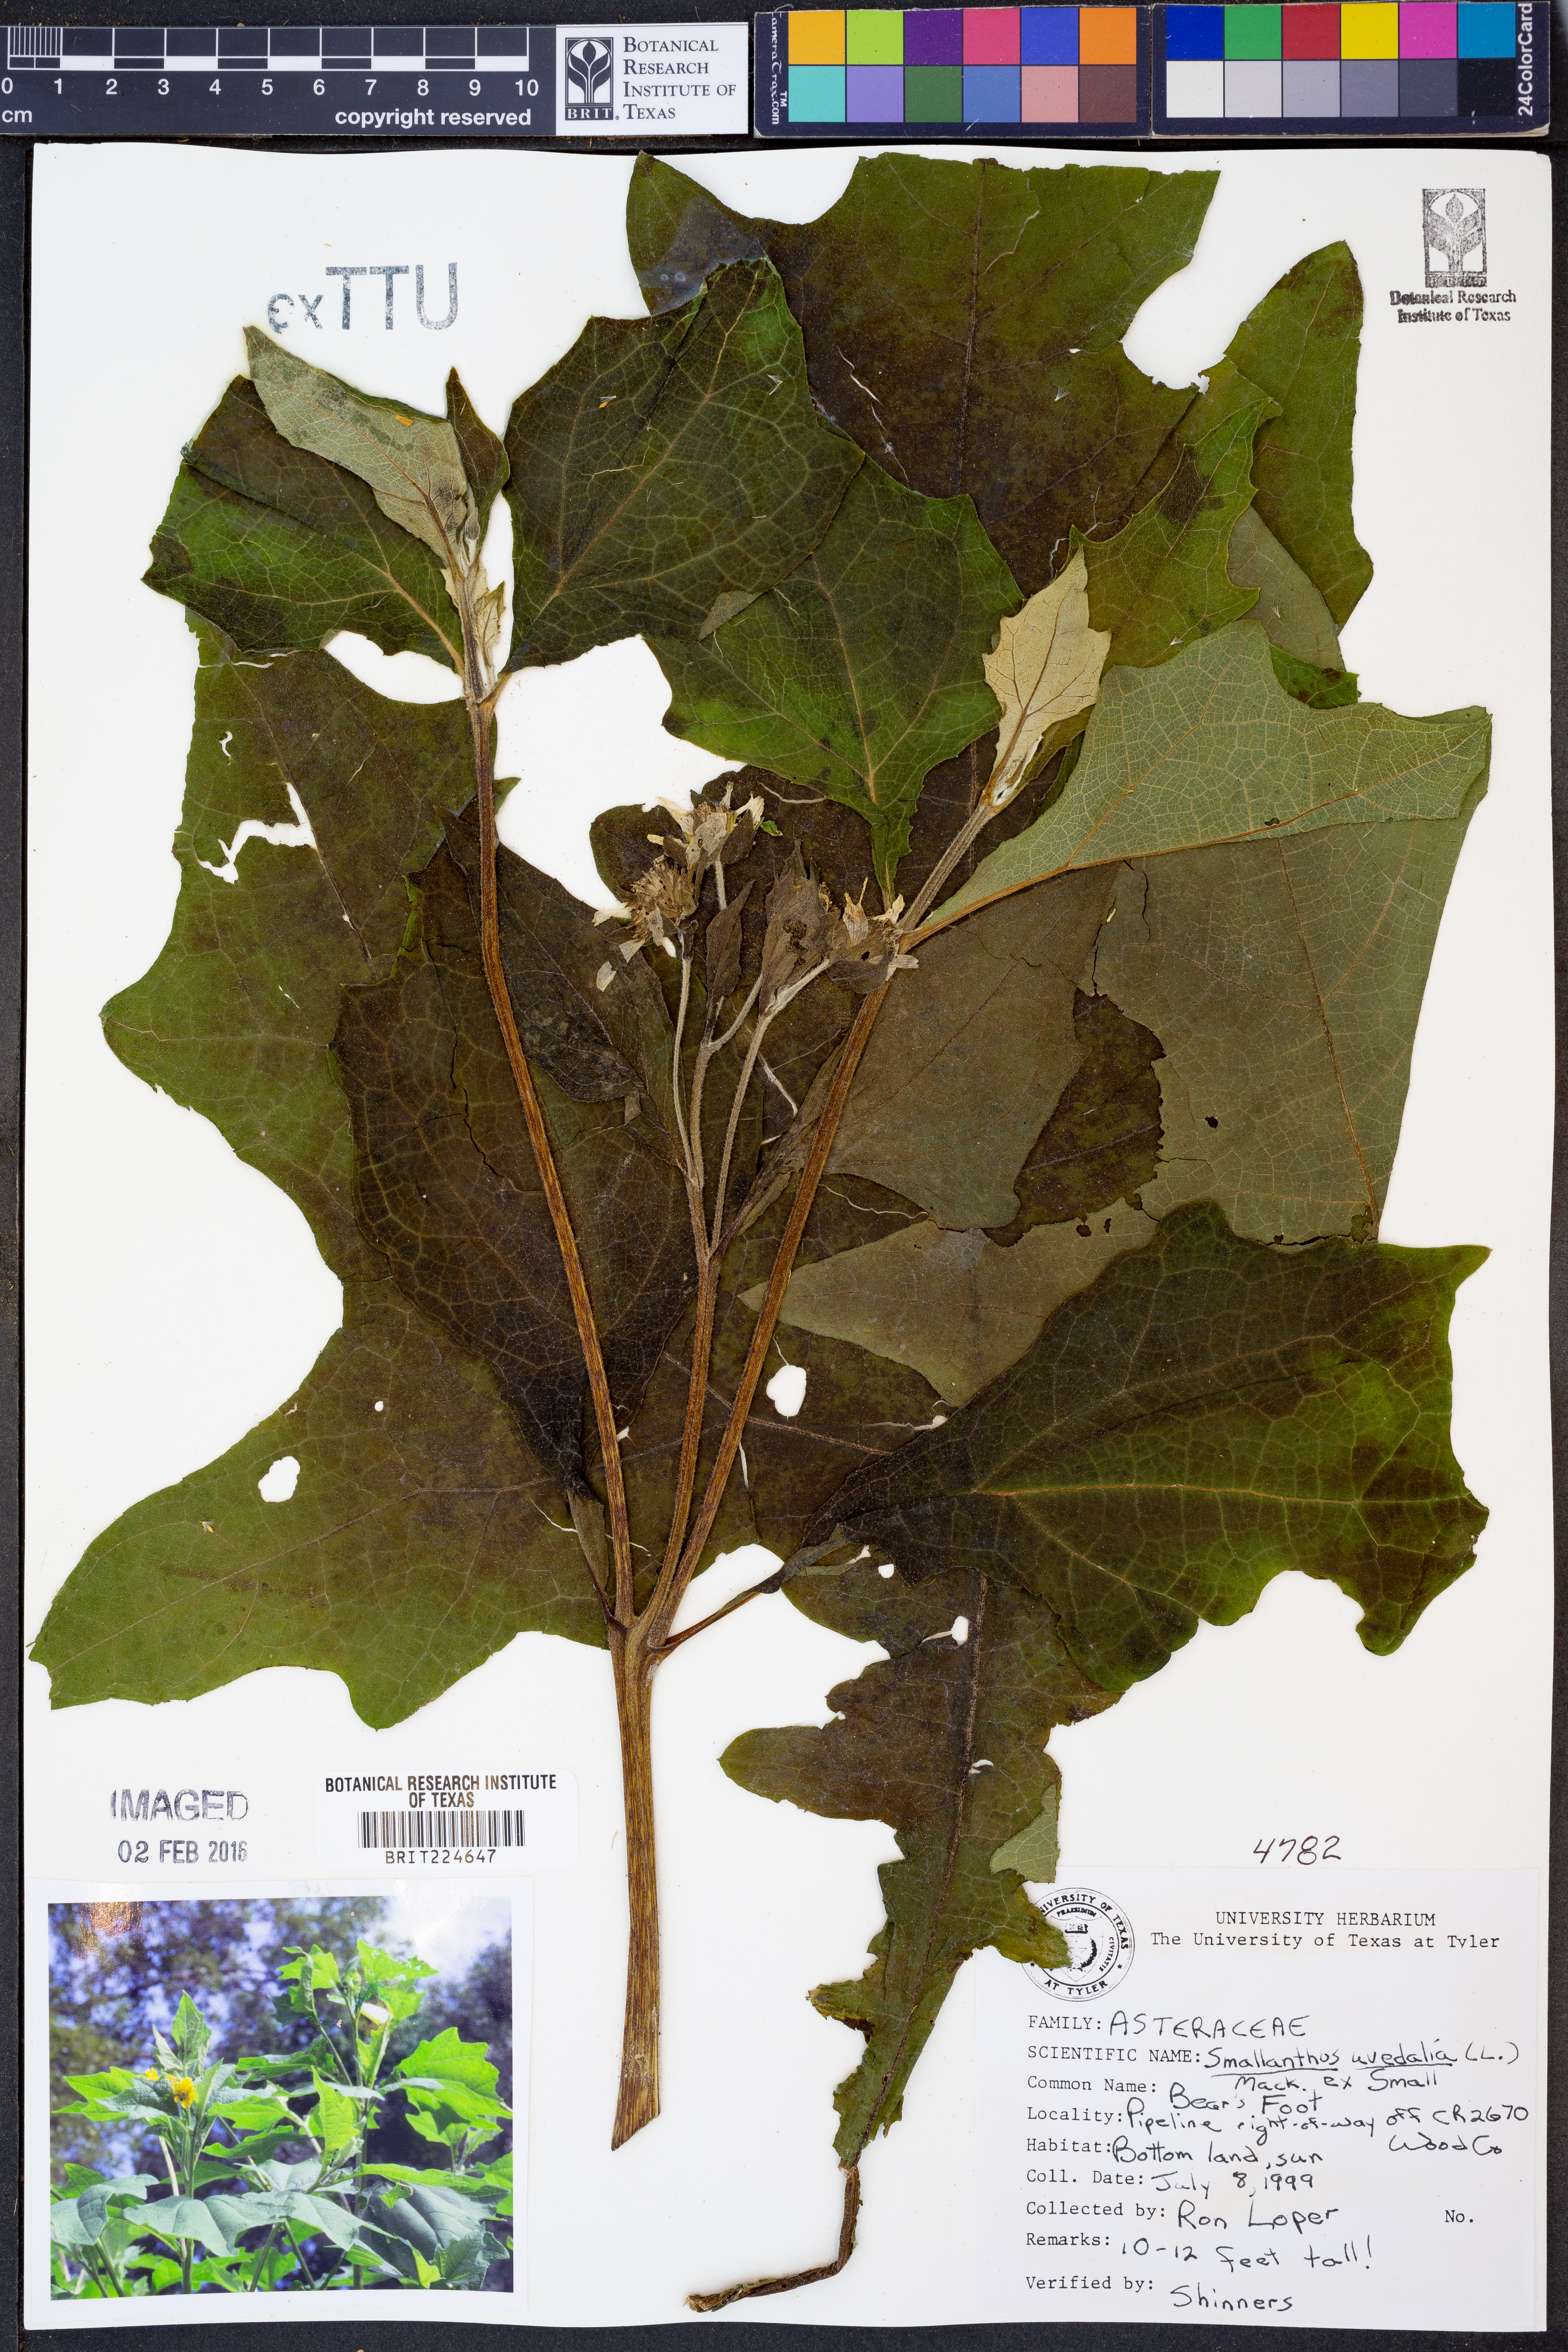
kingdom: Plantae
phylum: Tracheophyta
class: Magnoliopsida
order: Asterales
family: Asteraceae
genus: Smallanthus
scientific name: Smallanthus uvedalia
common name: Bear's-foot
